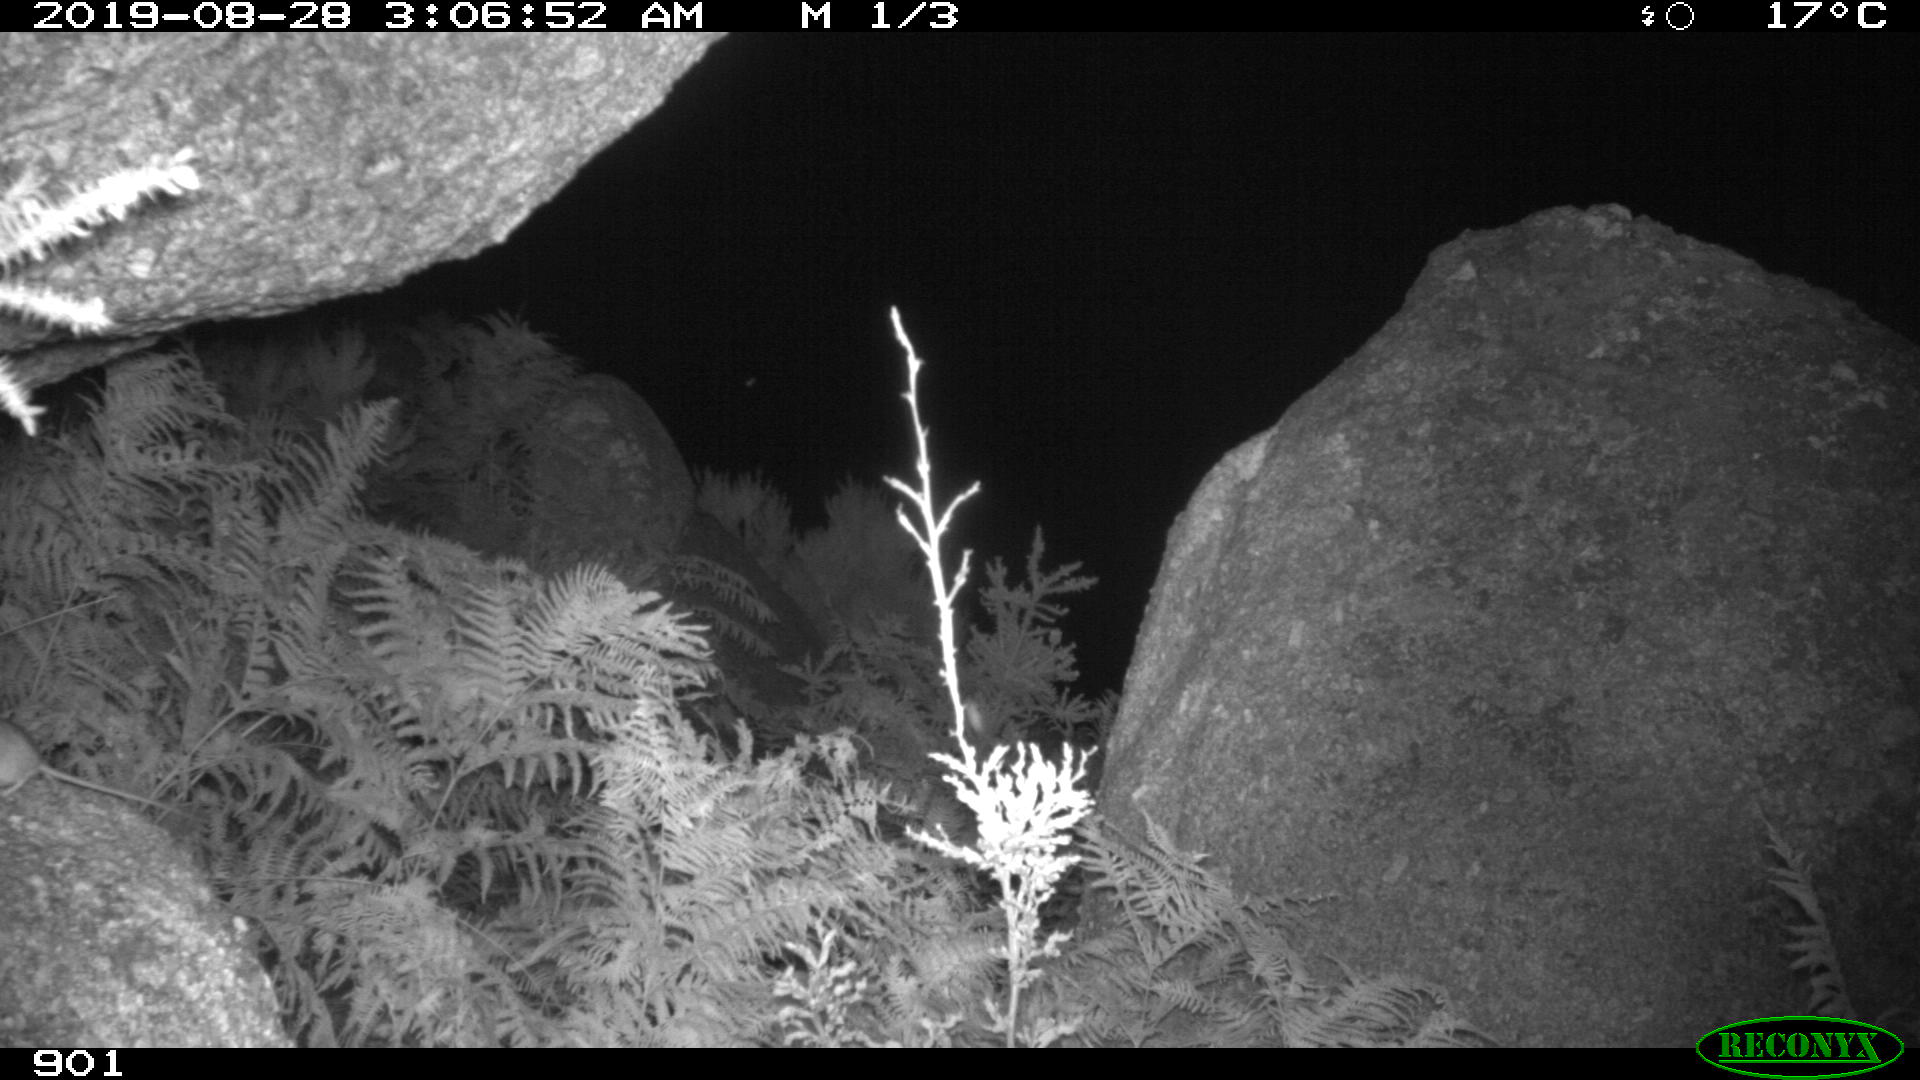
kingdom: Animalia
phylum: Chordata
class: Mammalia
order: Rodentia
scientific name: Rodentia
